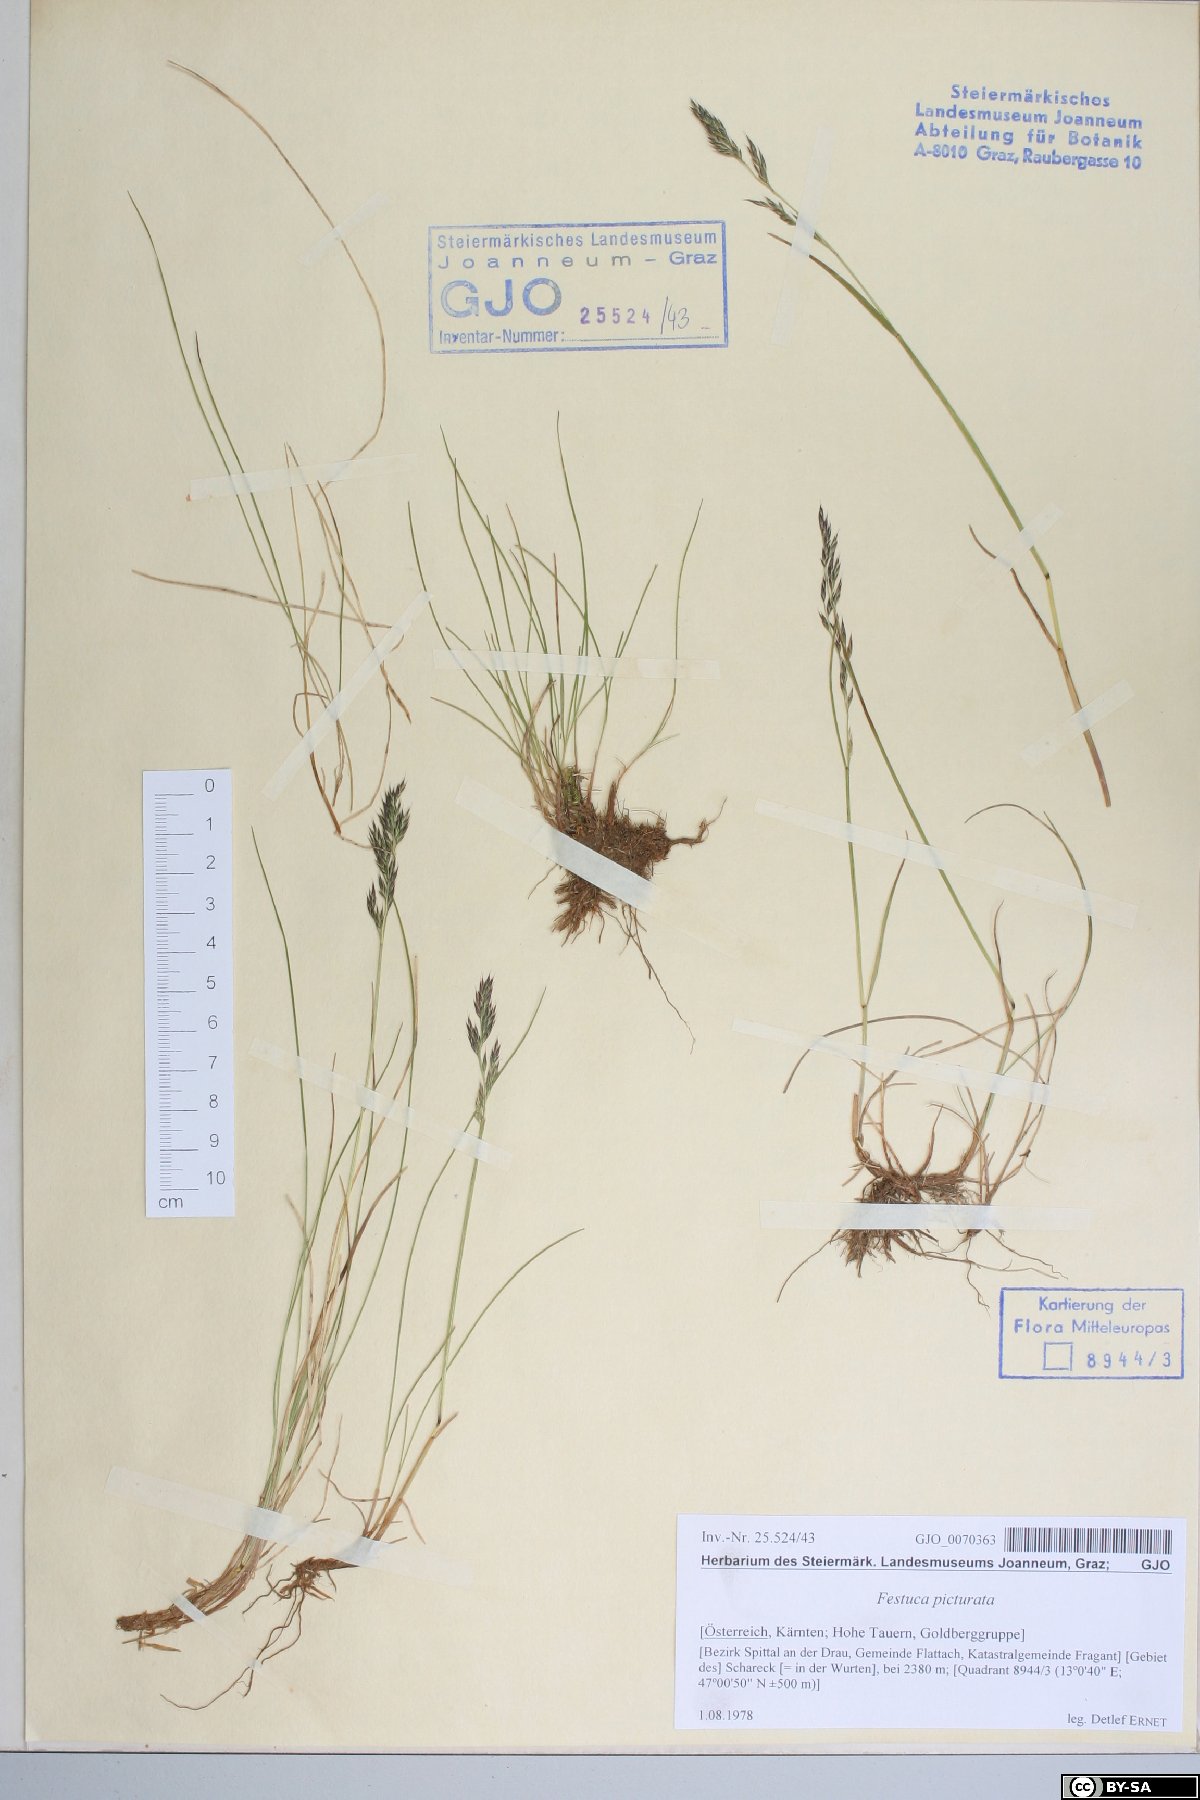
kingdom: Plantae
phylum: Tracheophyta
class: Liliopsida
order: Poales
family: Poaceae
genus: Festuca
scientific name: Festuca picturata
